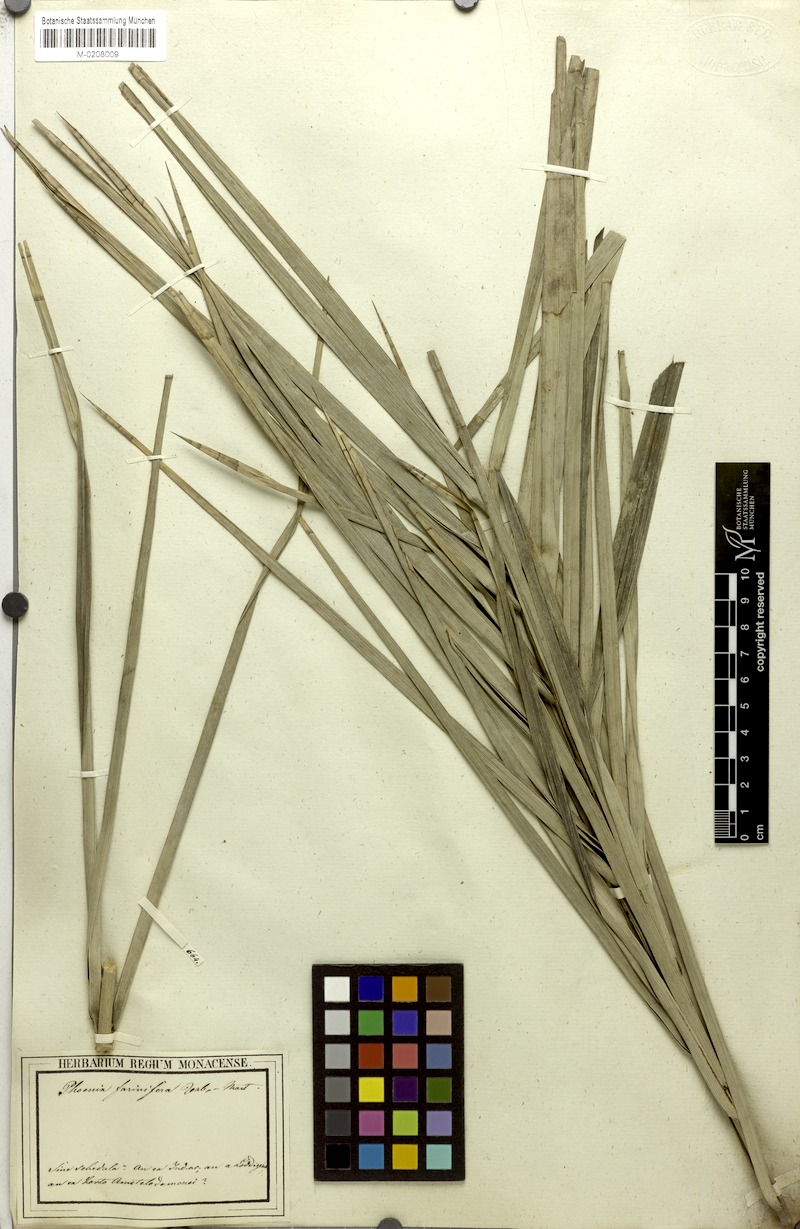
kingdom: Plantae
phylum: Tracheophyta
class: Liliopsida
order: Arecales
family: Arecaceae
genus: Phoenix
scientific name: Phoenix pusilla
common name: Flour palm
